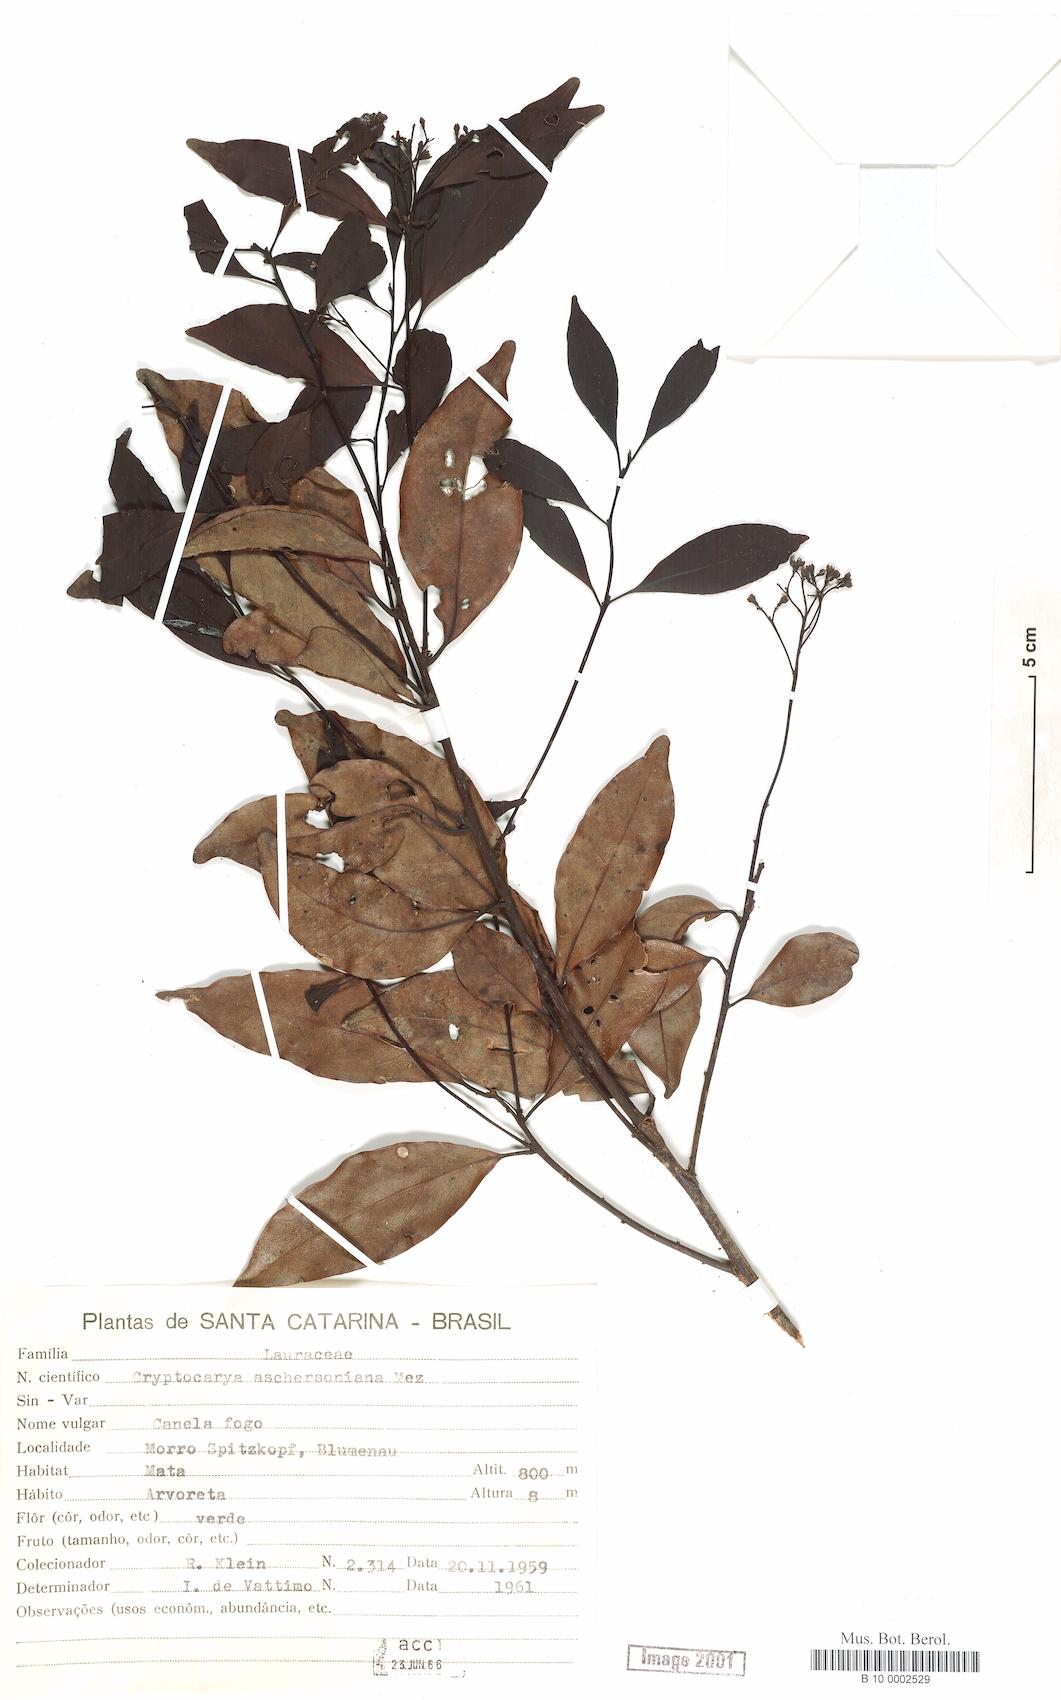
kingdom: Plantae
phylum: Tracheophyta
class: Magnoliopsida
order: Laurales
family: Lauraceae
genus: Cryptocarya
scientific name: Cryptocarya aschersoniana
